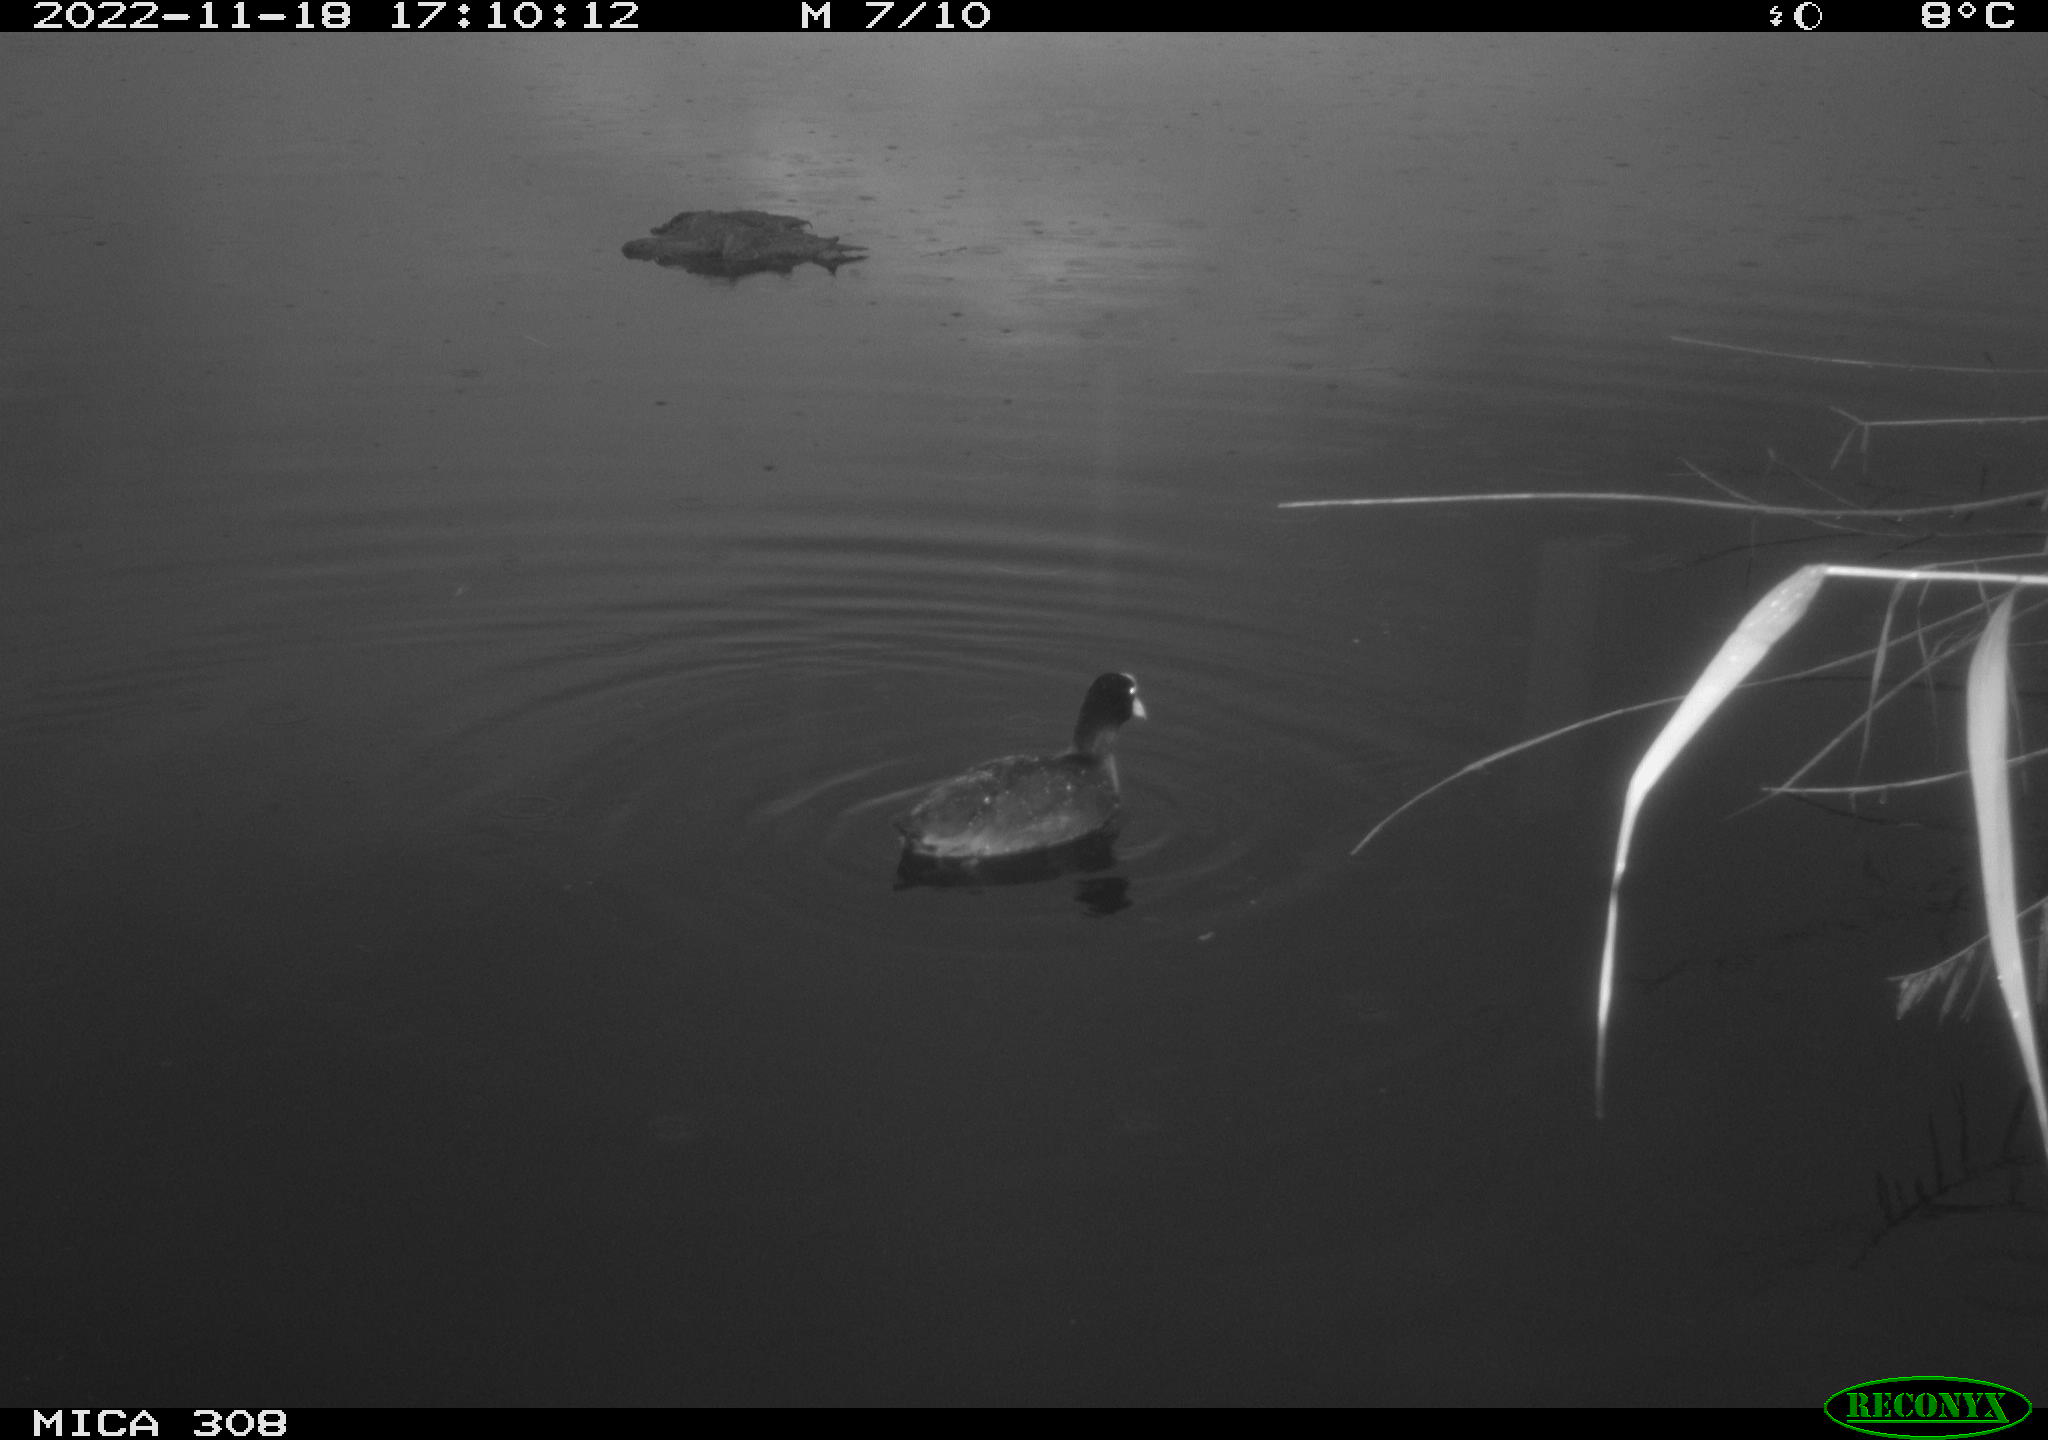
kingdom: Animalia
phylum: Chordata
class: Aves
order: Anseriformes
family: Anatidae
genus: Anas
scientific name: Anas
